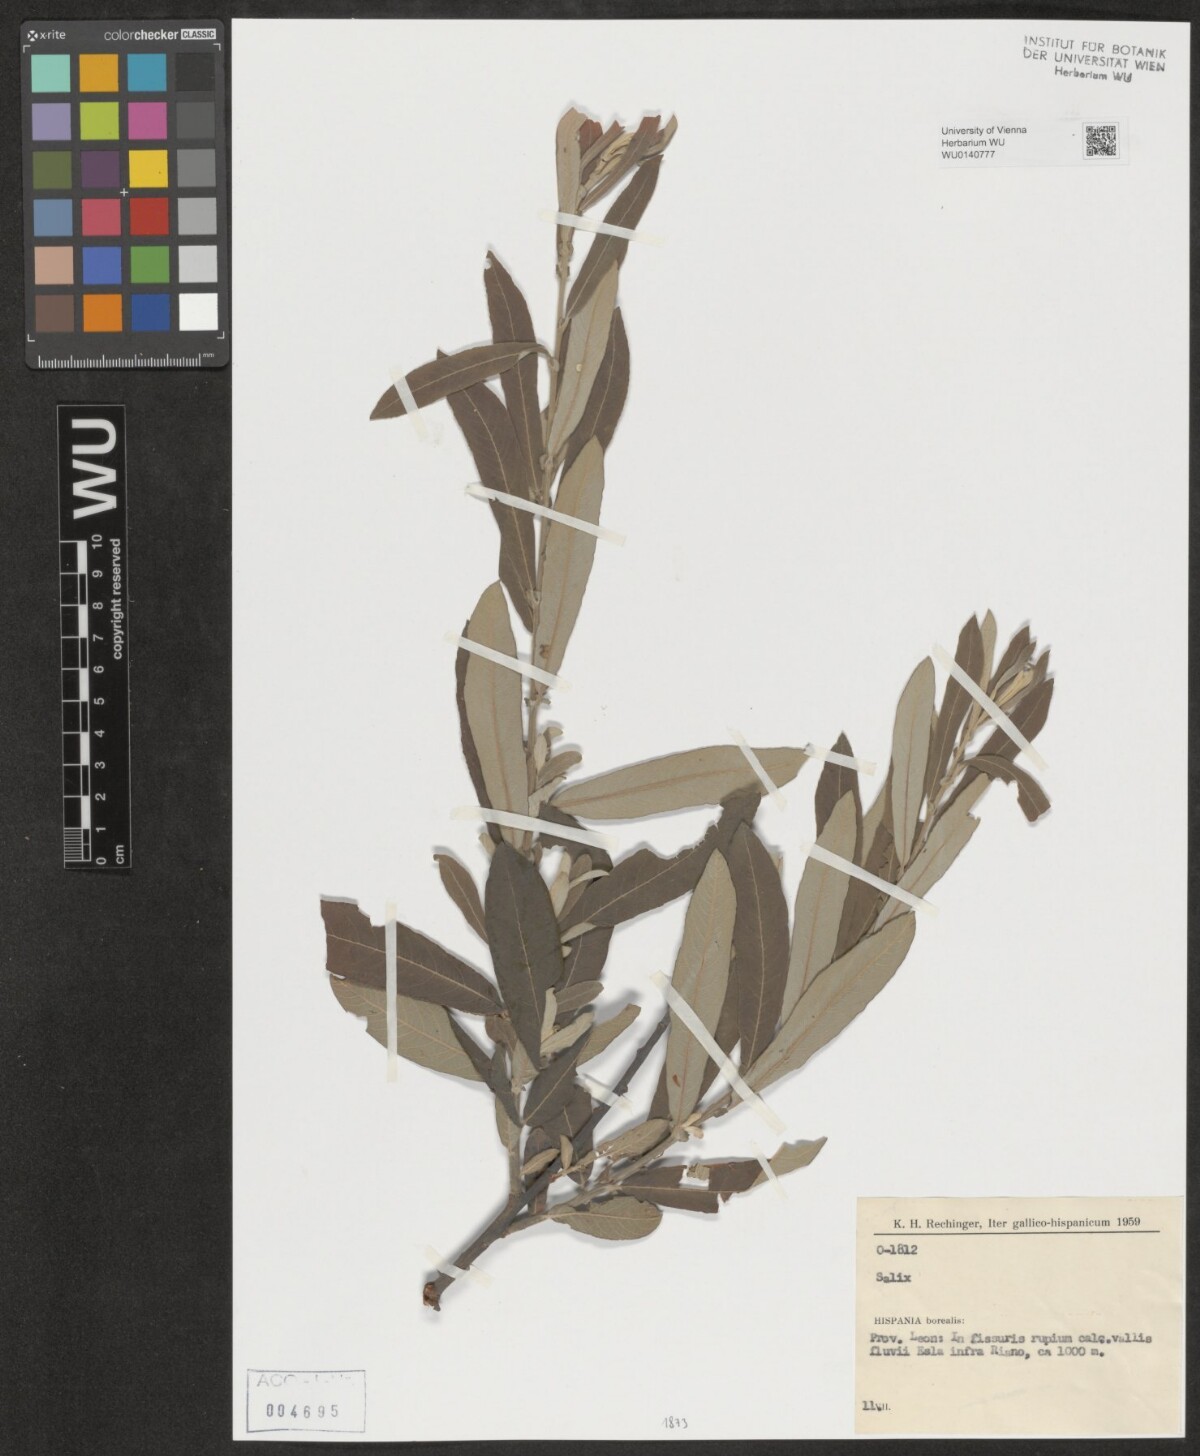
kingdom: Plantae
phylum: Tracheophyta
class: Magnoliopsida
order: Malpighiales
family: Salicaceae
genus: Salix
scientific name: Salix
